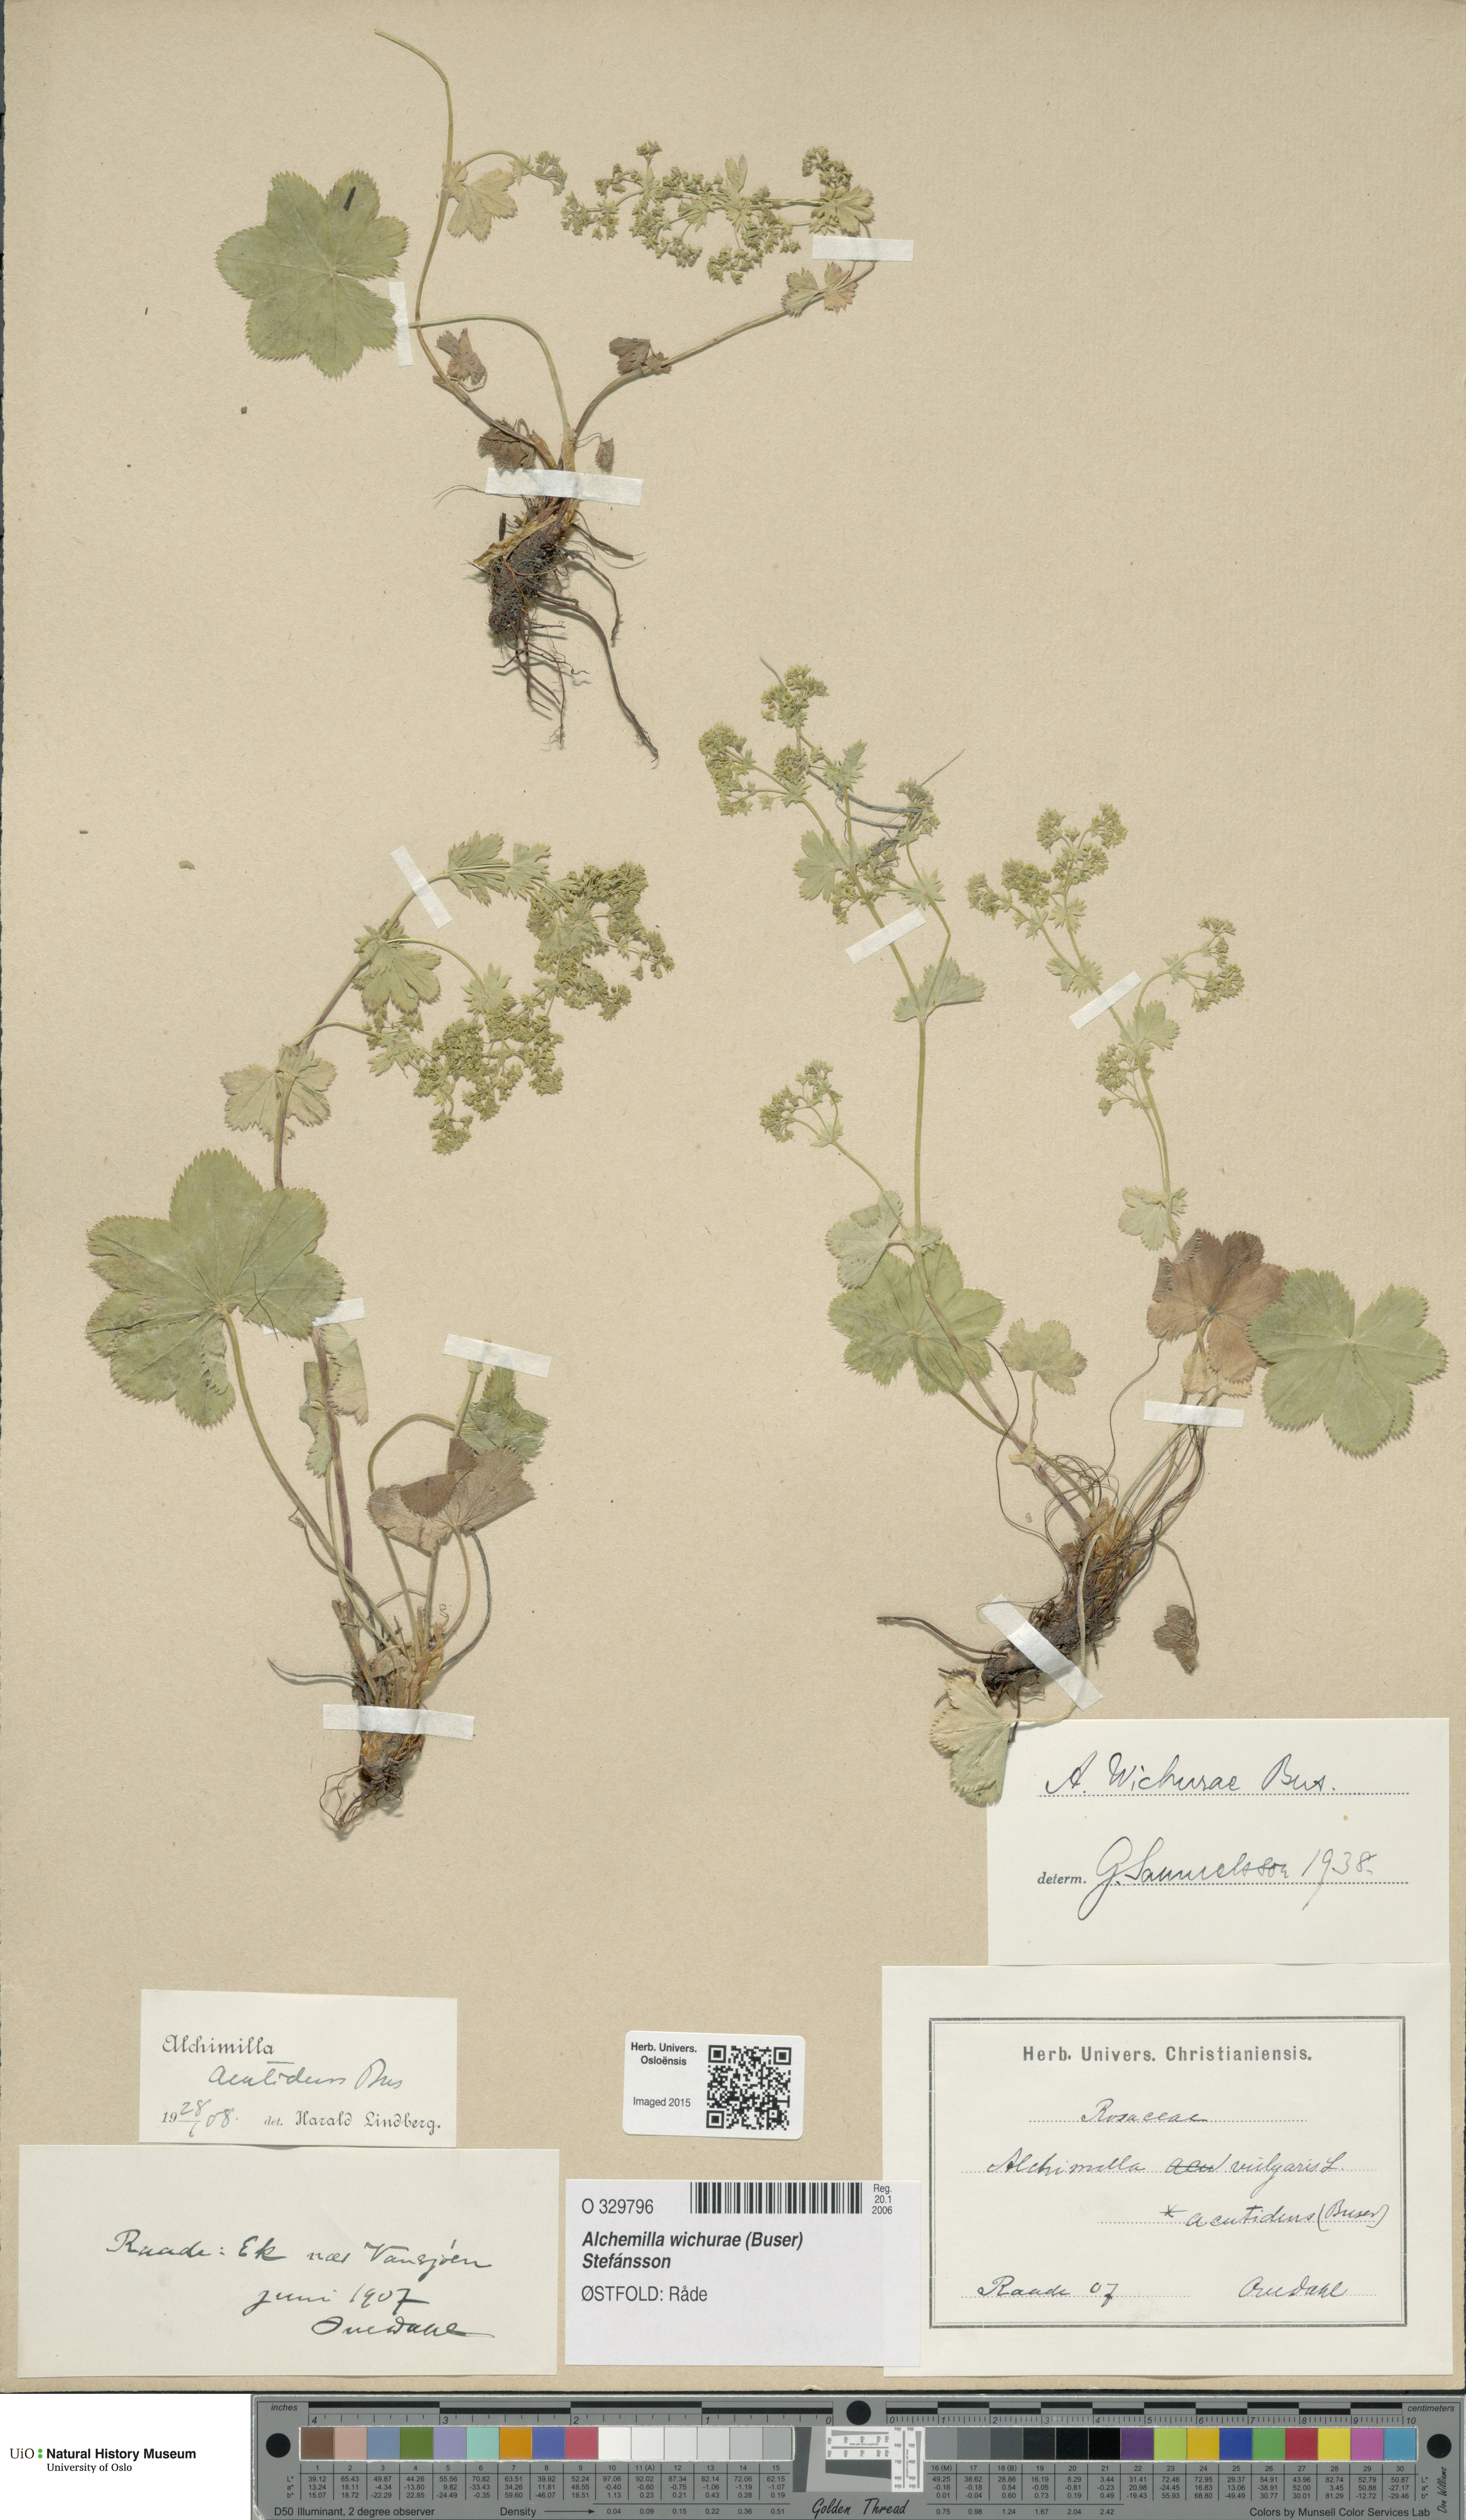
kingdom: Plantae
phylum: Tracheophyta
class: Magnoliopsida
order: Rosales
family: Rosaceae
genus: Alchemilla
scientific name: Alchemilla wichurae
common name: Rock lady's mantle
